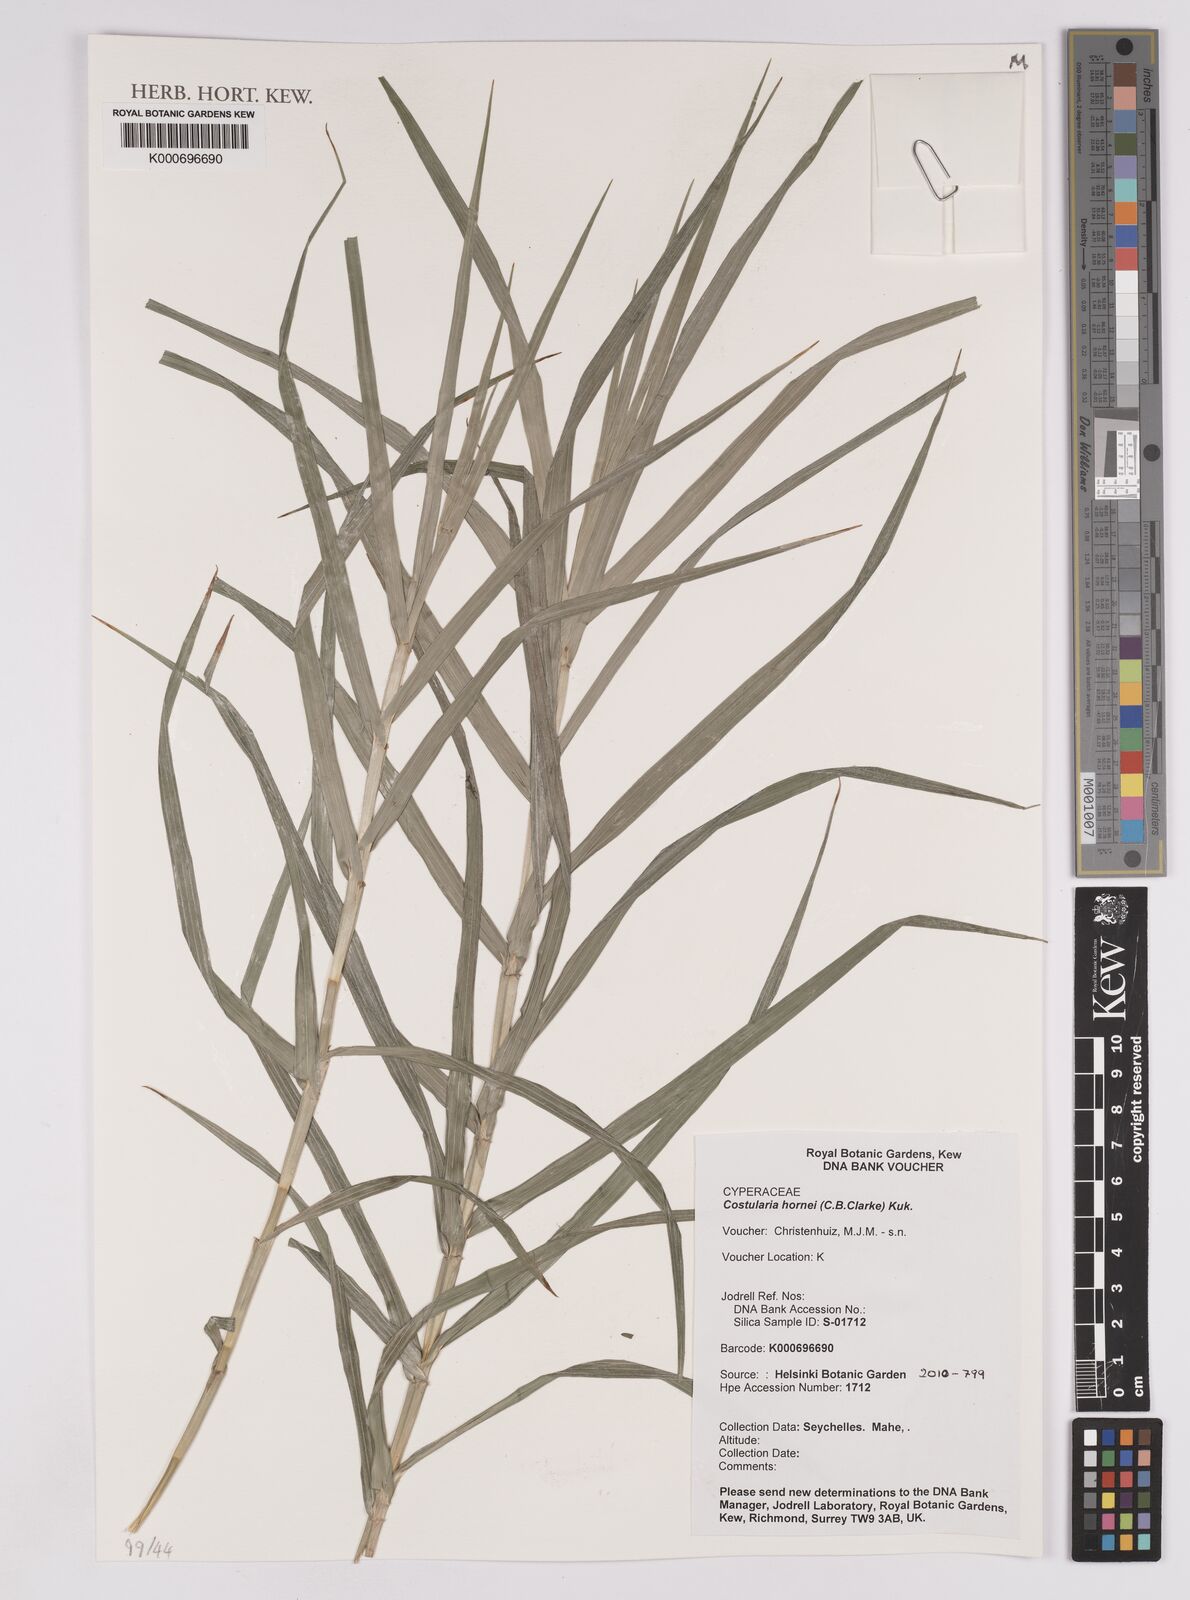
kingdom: Plantae
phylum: Tracheophyta
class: Liliopsida
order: Poales
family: Cyperaceae
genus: Xyroschoenus
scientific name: Xyroschoenus hornei
